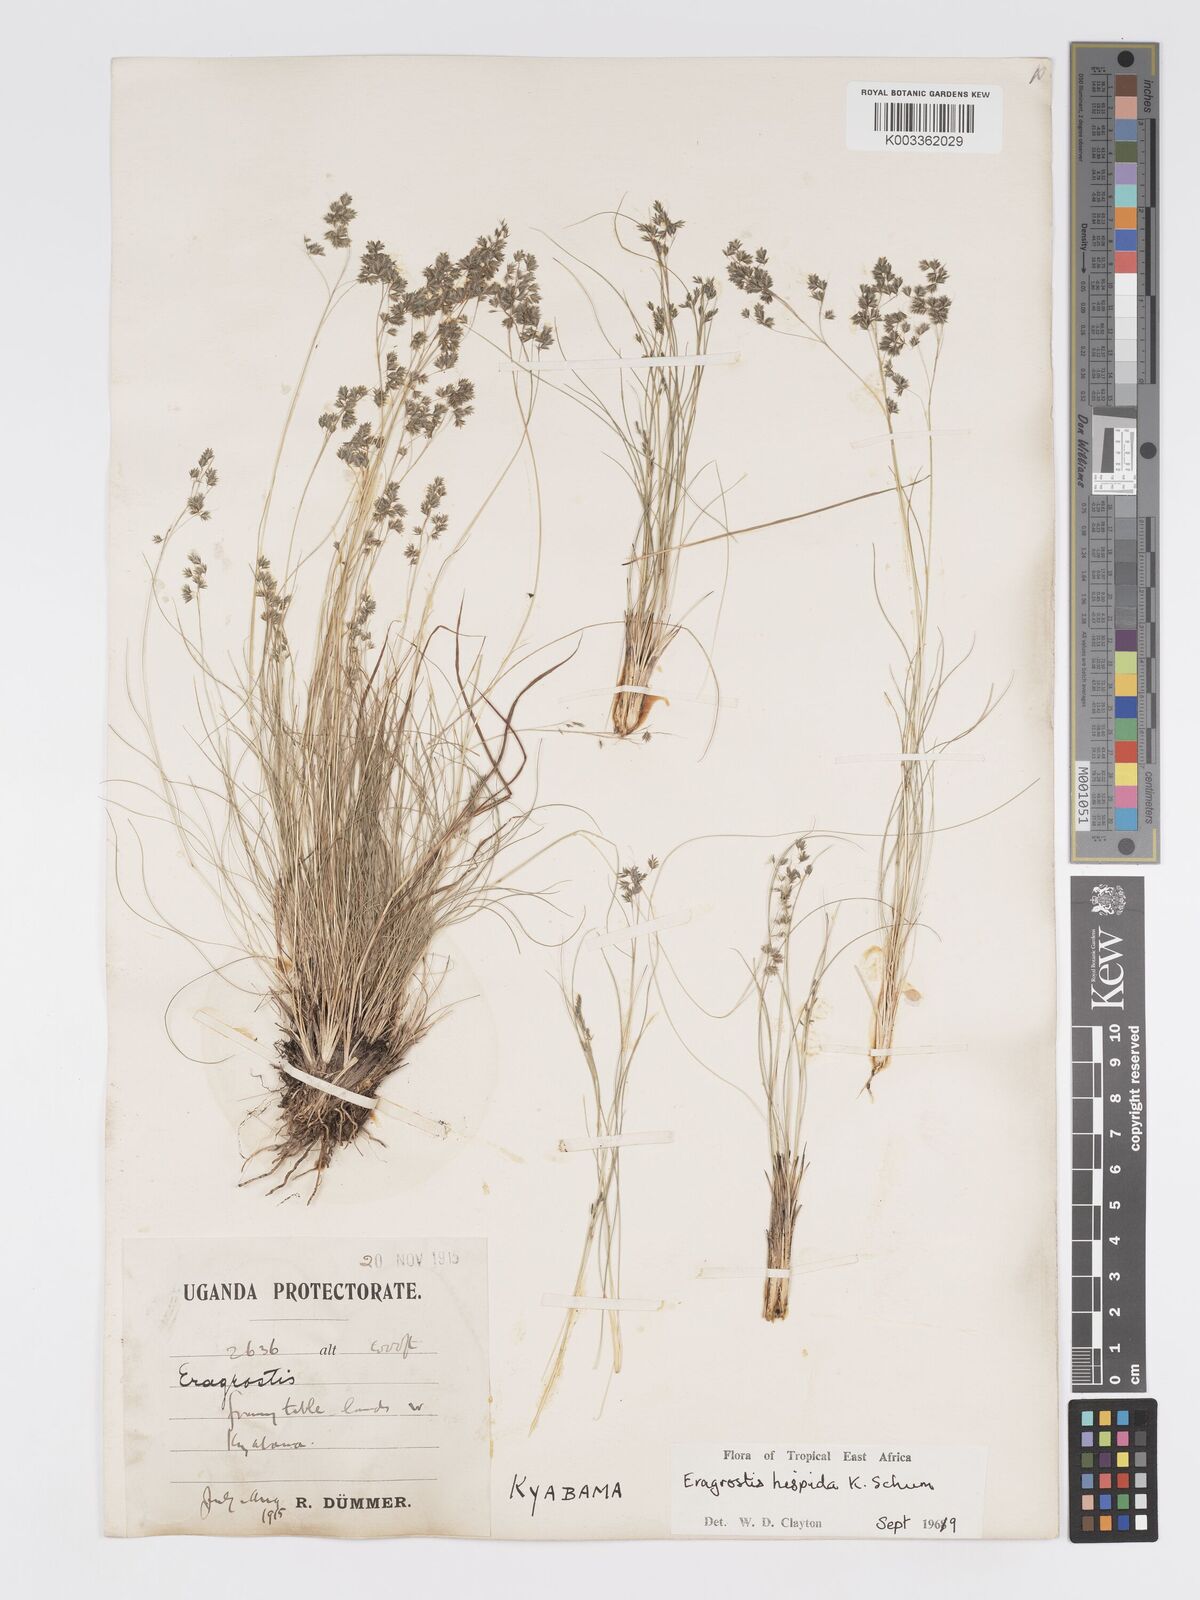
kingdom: Plantae
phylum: Tracheophyta
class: Liliopsida
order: Poales
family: Poaceae
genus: Eragrostis
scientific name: Eragrostis hispida
